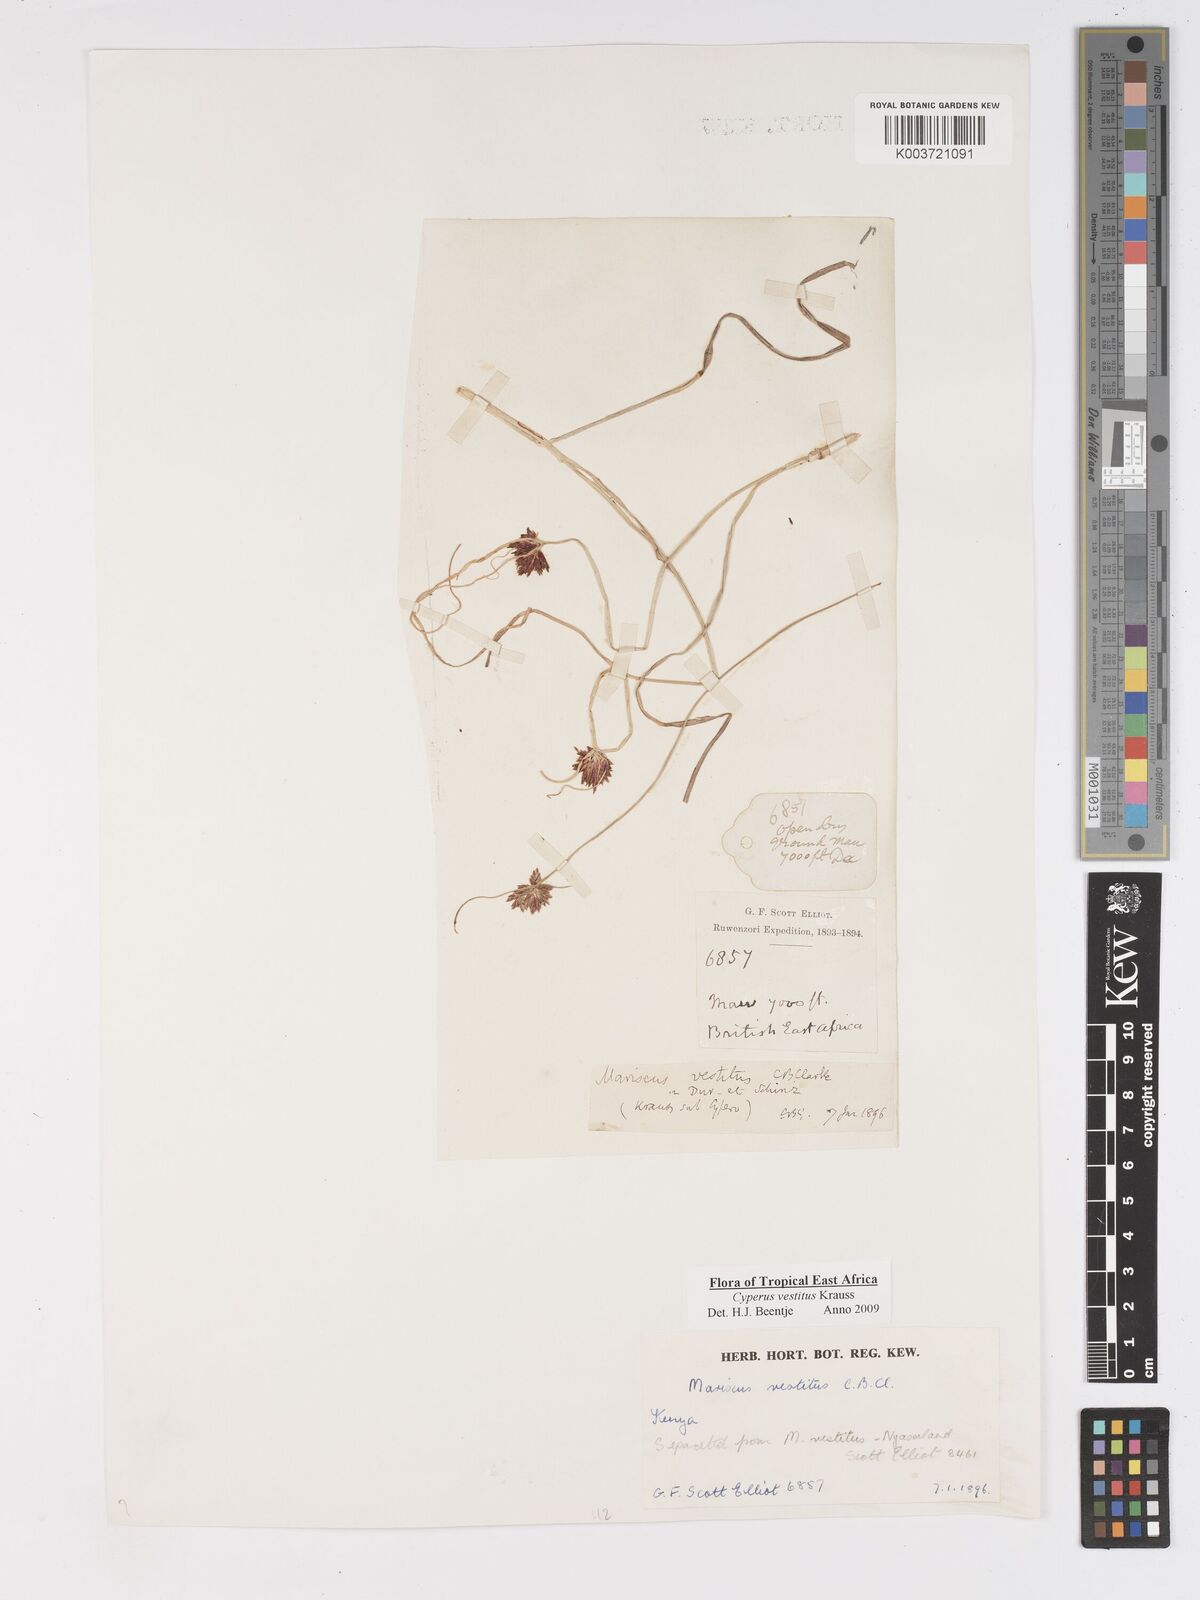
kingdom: Plantae
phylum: Tracheophyta
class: Liliopsida
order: Poales
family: Cyperaceae
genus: Cyperus
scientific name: Cyperus vestitus
